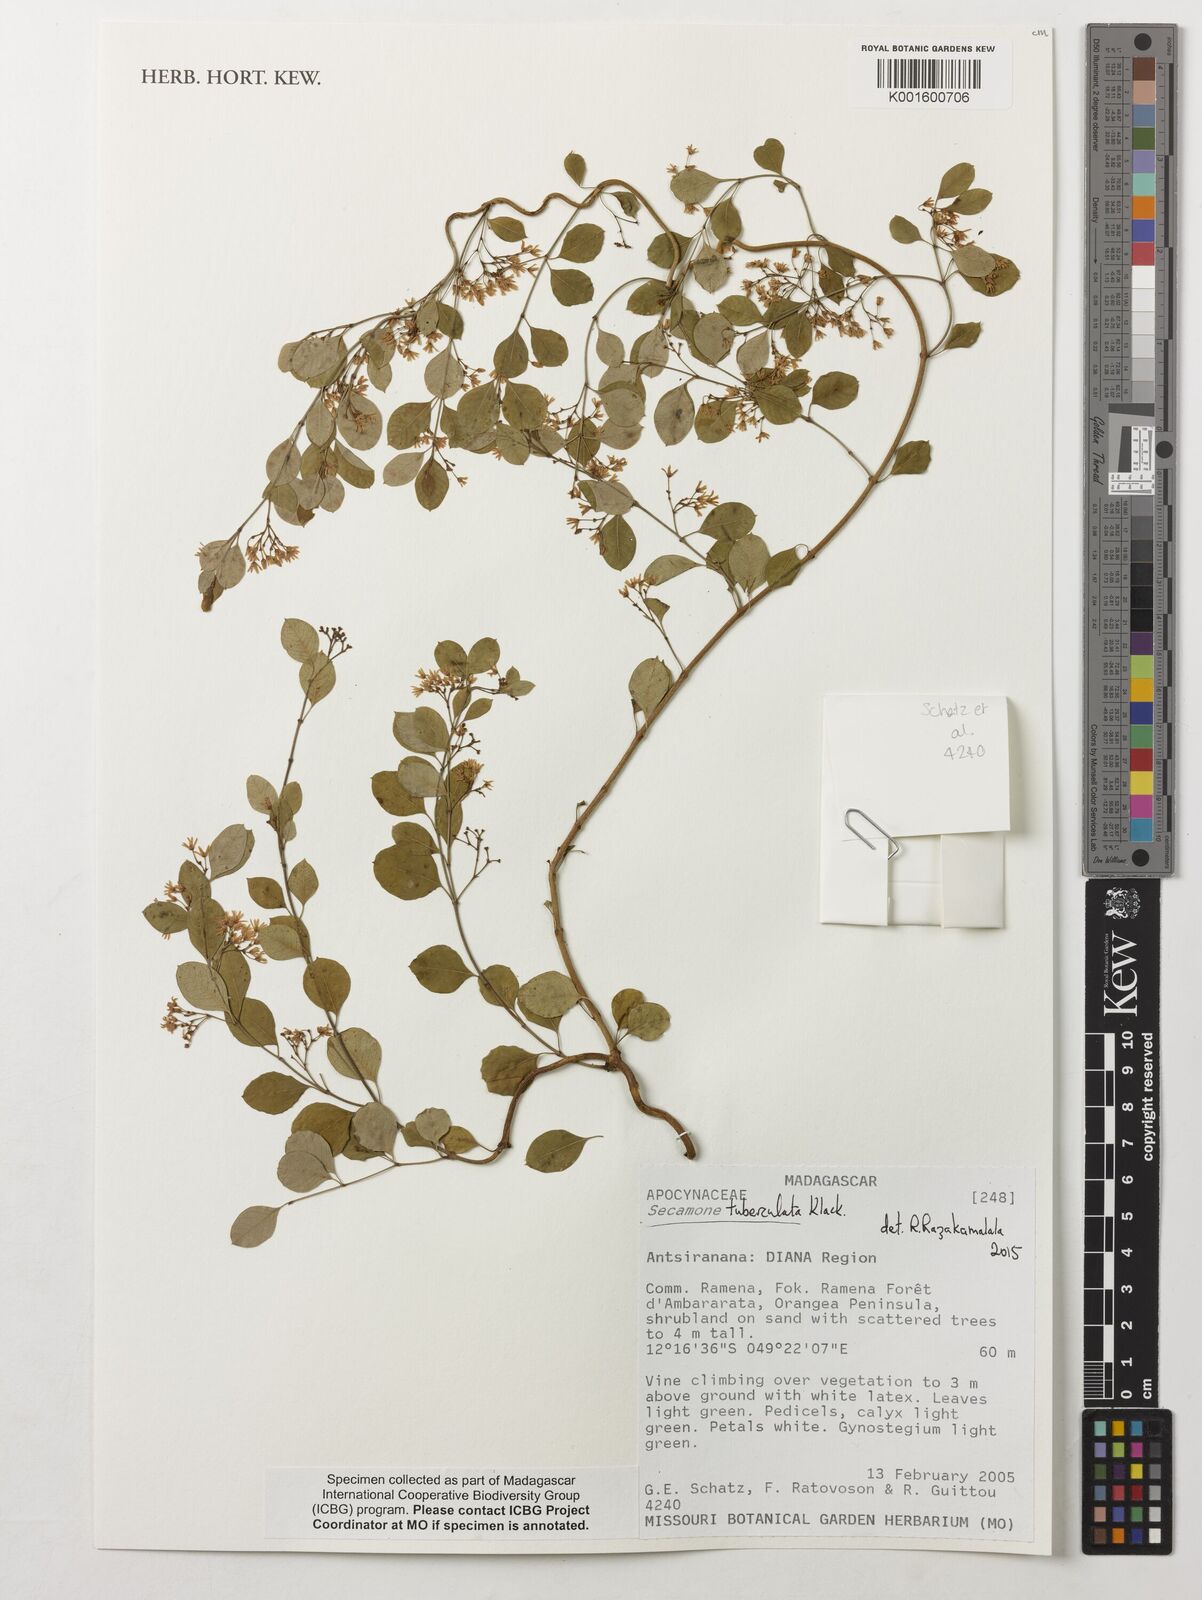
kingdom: Plantae
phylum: Tracheophyta
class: Magnoliopsida
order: Gentianales
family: Apocynaceae
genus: Secamone
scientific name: Secamone tuberculata
